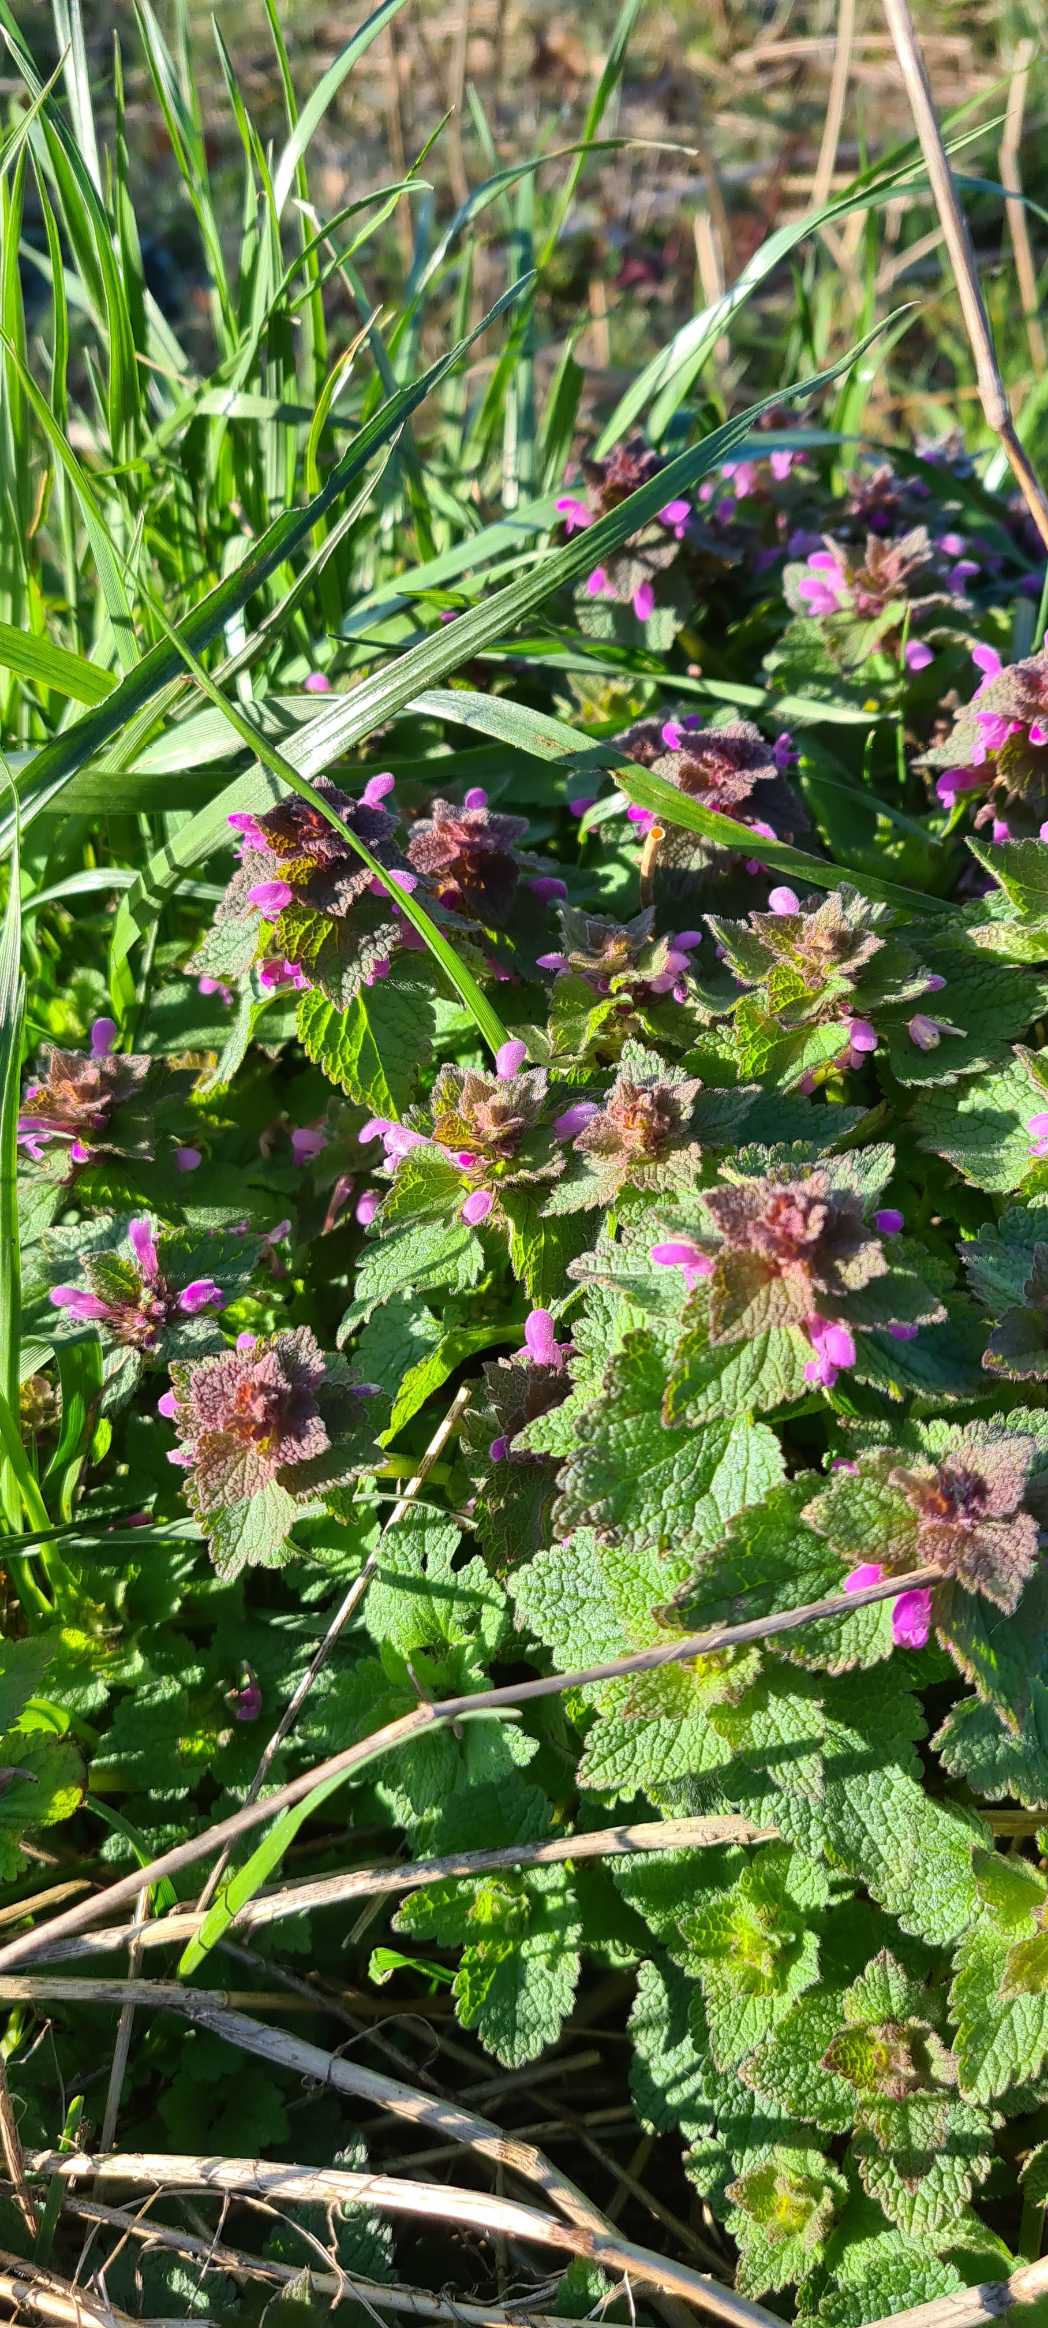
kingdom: Plantae
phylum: Tracheophyta
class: Magnoliopsida
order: Lamiales
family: Lamiaceae
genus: Lamium
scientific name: Lamium purpureum
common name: Rød tvetand
